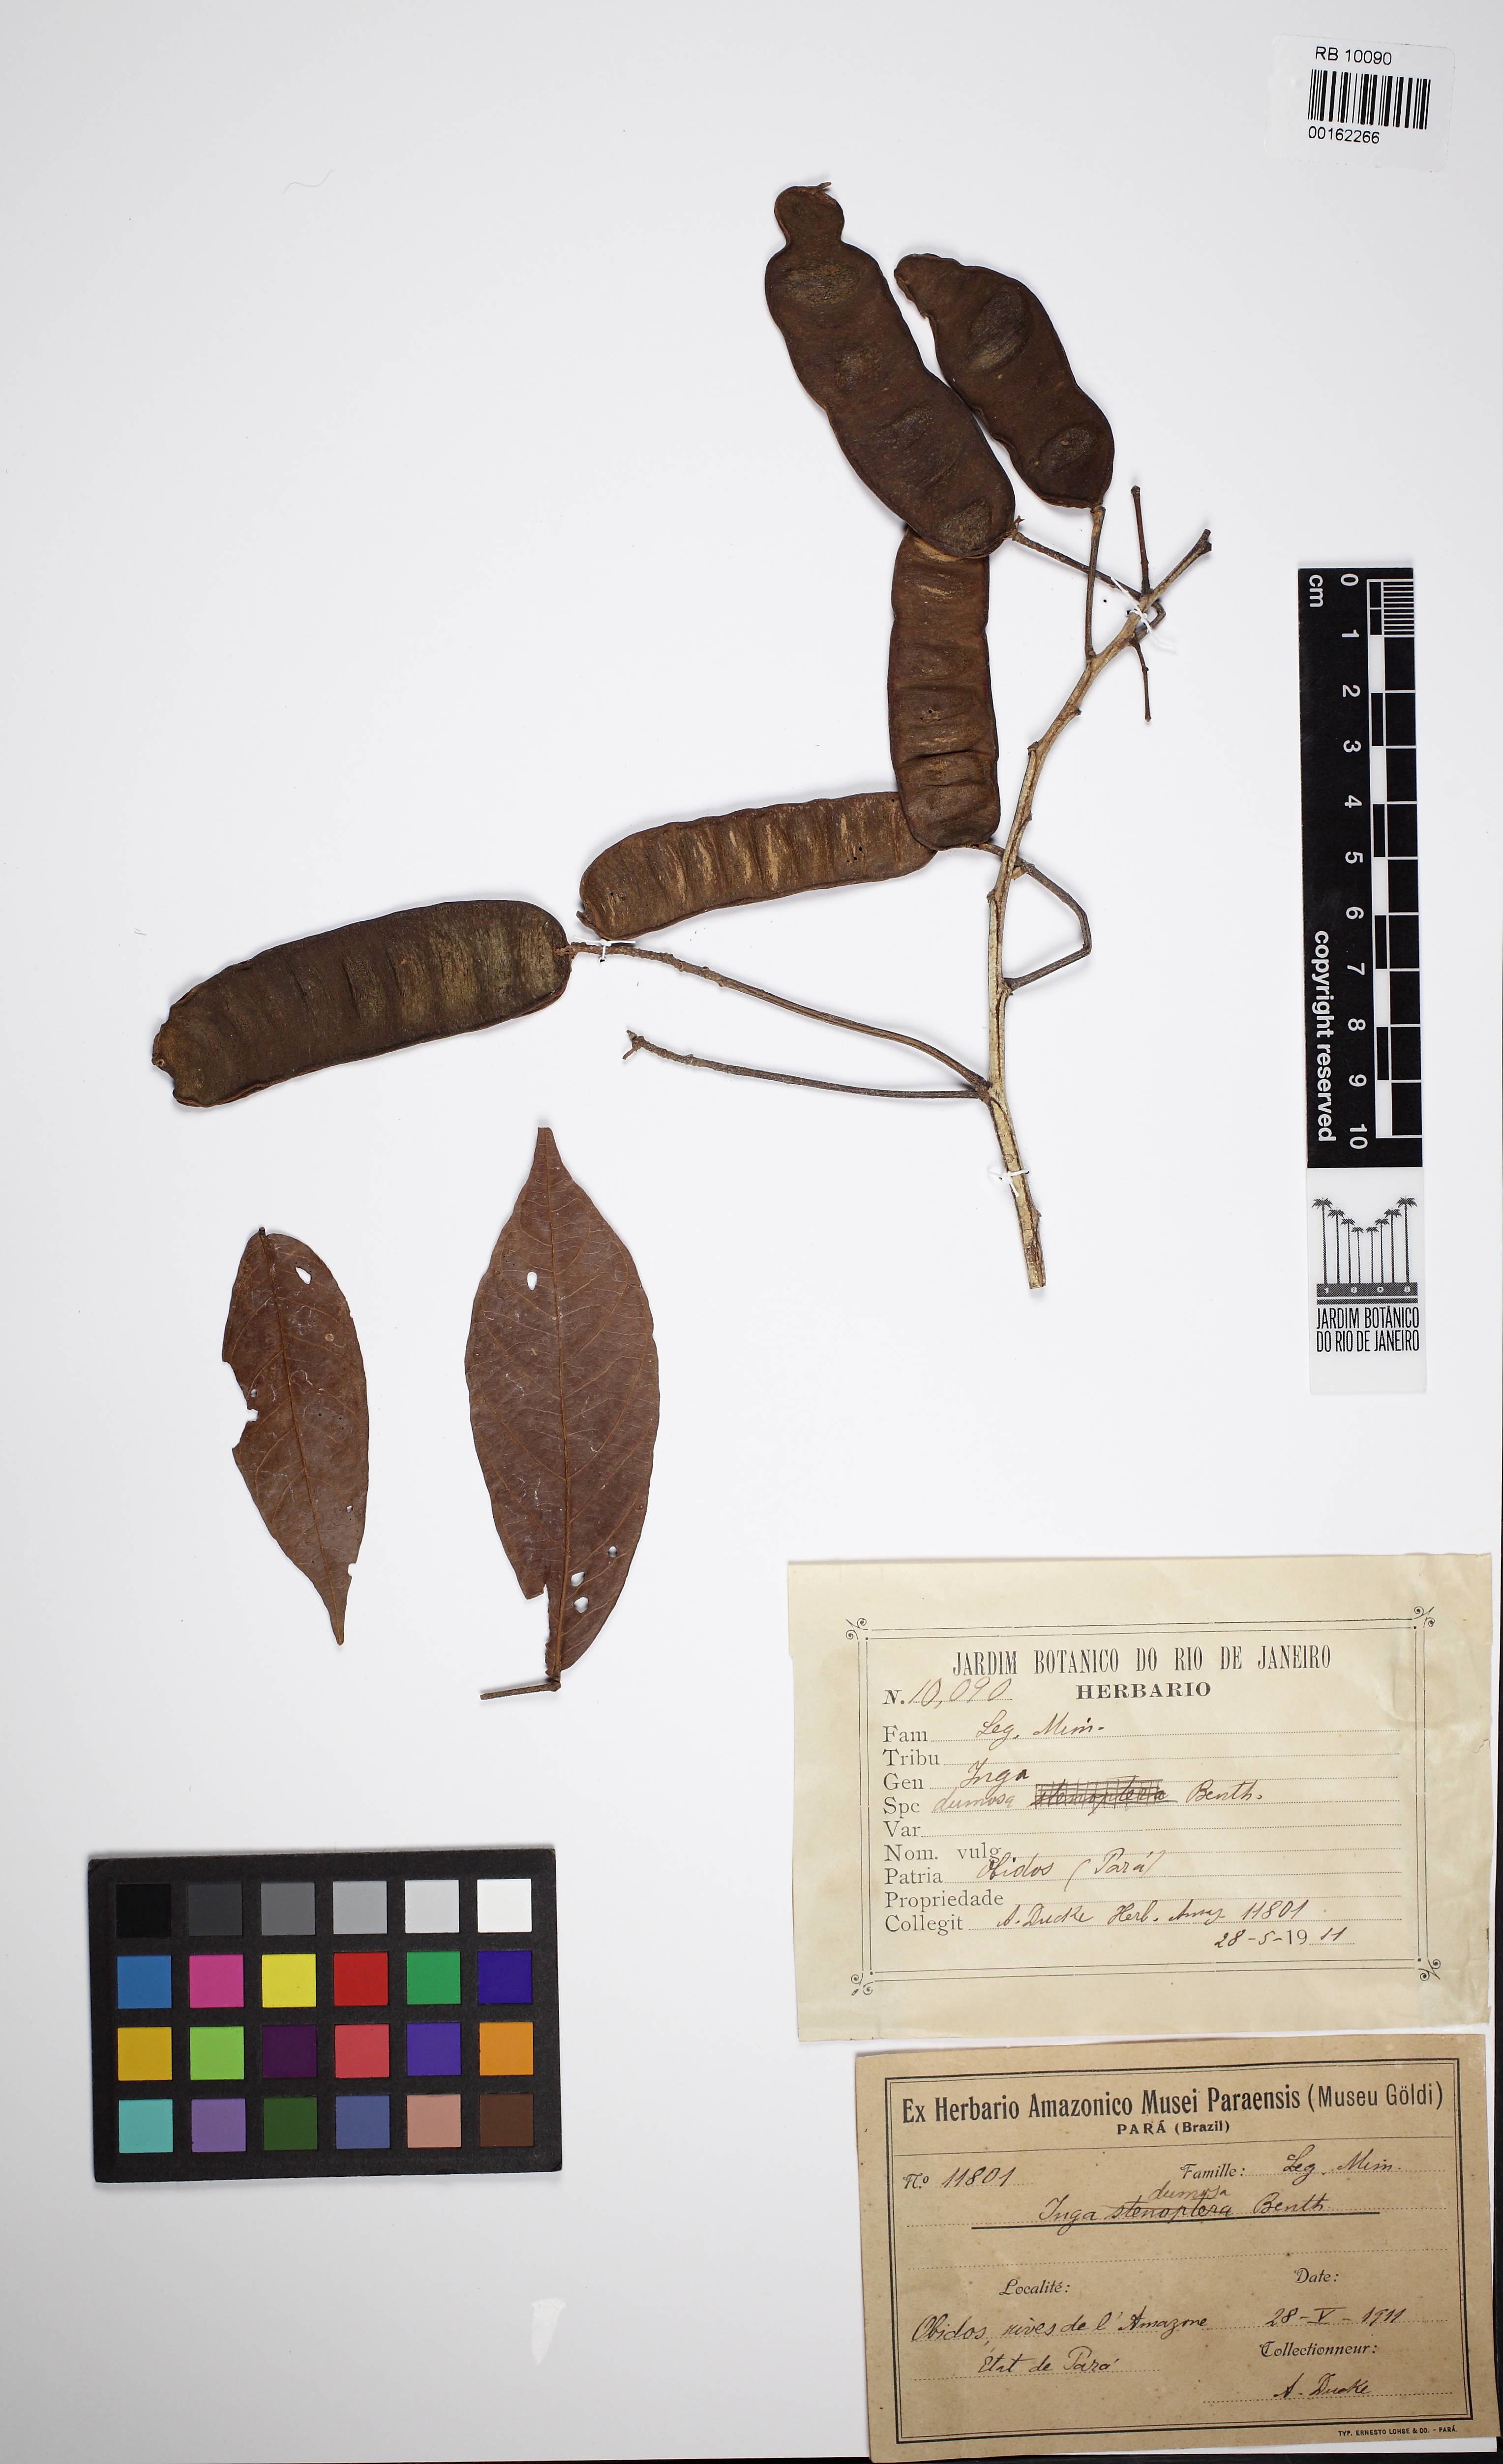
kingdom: Plantae
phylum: Tracheophyta
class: Magnoliopsida
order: Fabales
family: Fabaceae
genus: Inga
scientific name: Inga stenoptera
